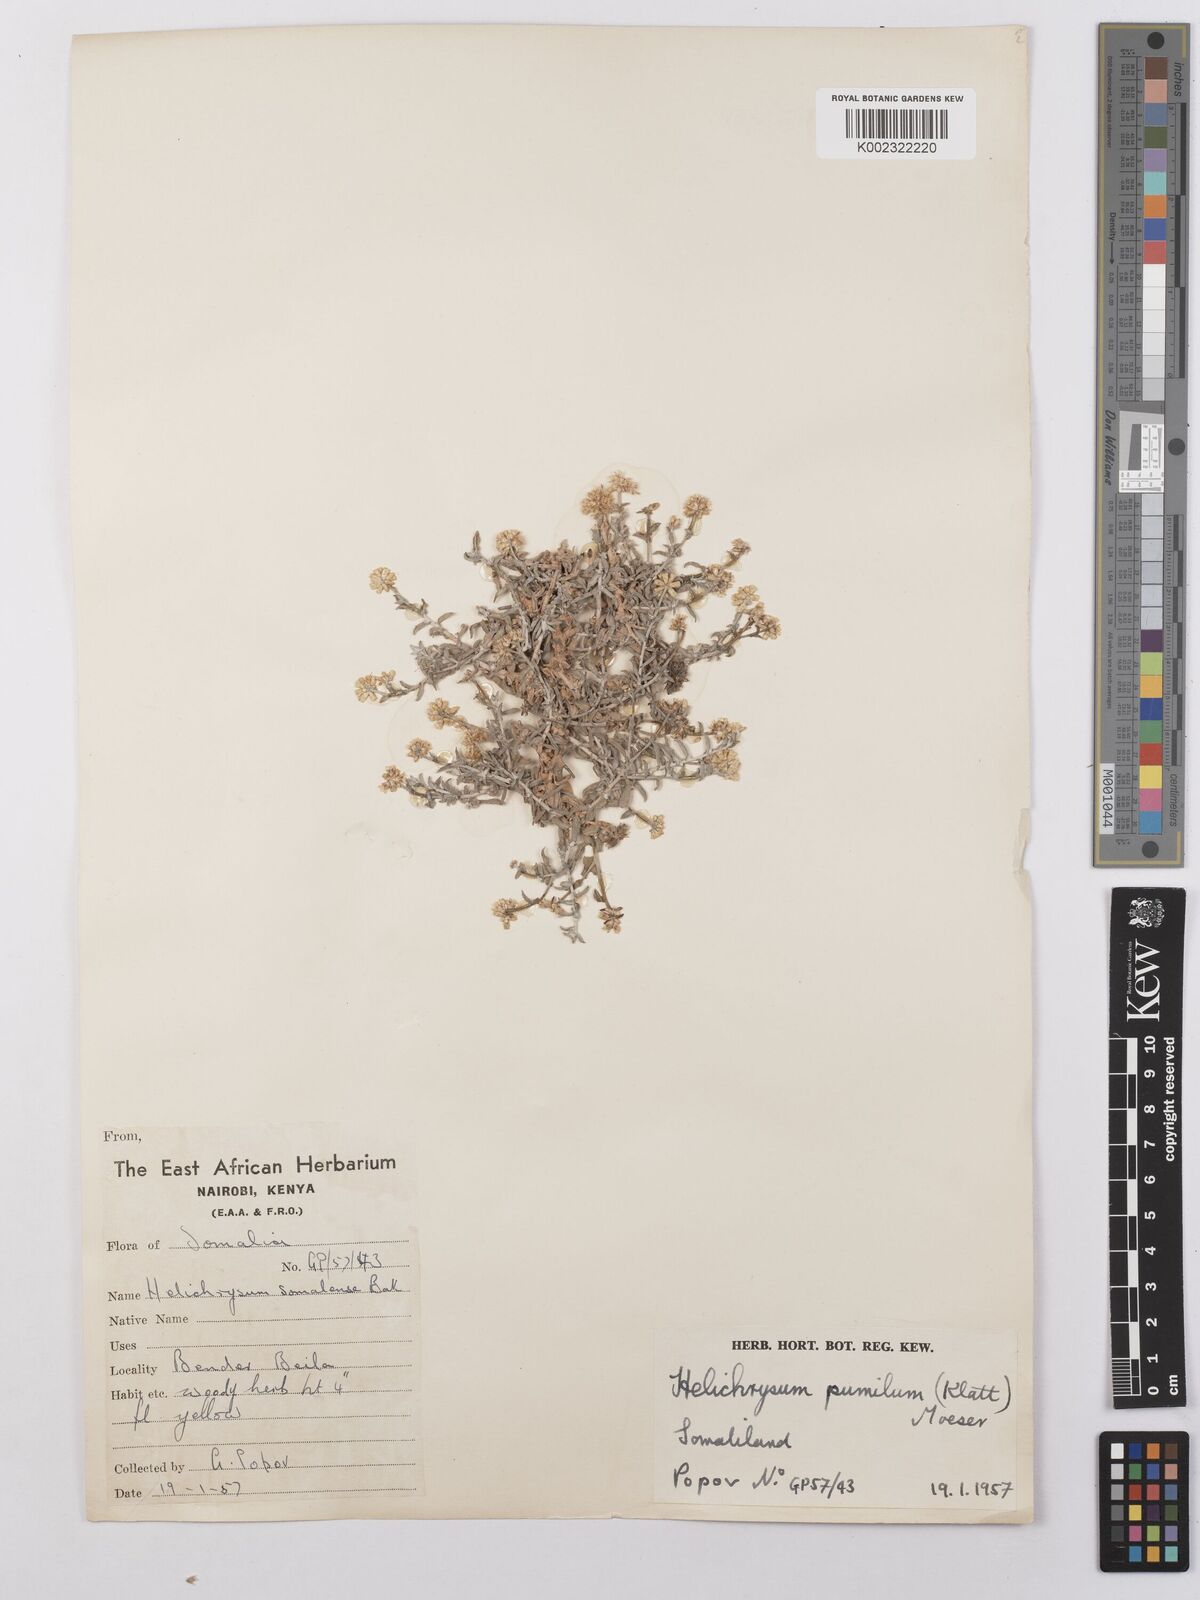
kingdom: Plantae
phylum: Tracheophyta
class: Magnoliopsida
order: Asterales
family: Asteraceae
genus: Helichrysum
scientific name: Helichrysum pumilum
